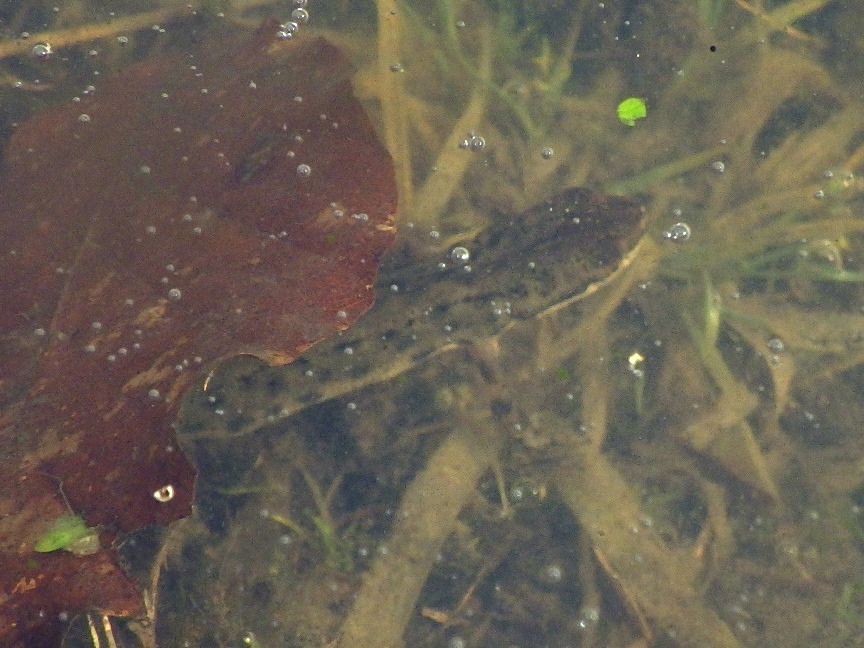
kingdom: Animalia
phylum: Chordata
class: Amphibia
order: Caudata
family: Salamandridae
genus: Lissotriton
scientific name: Lissotriton vulgaris
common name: Lille vandsalamander
